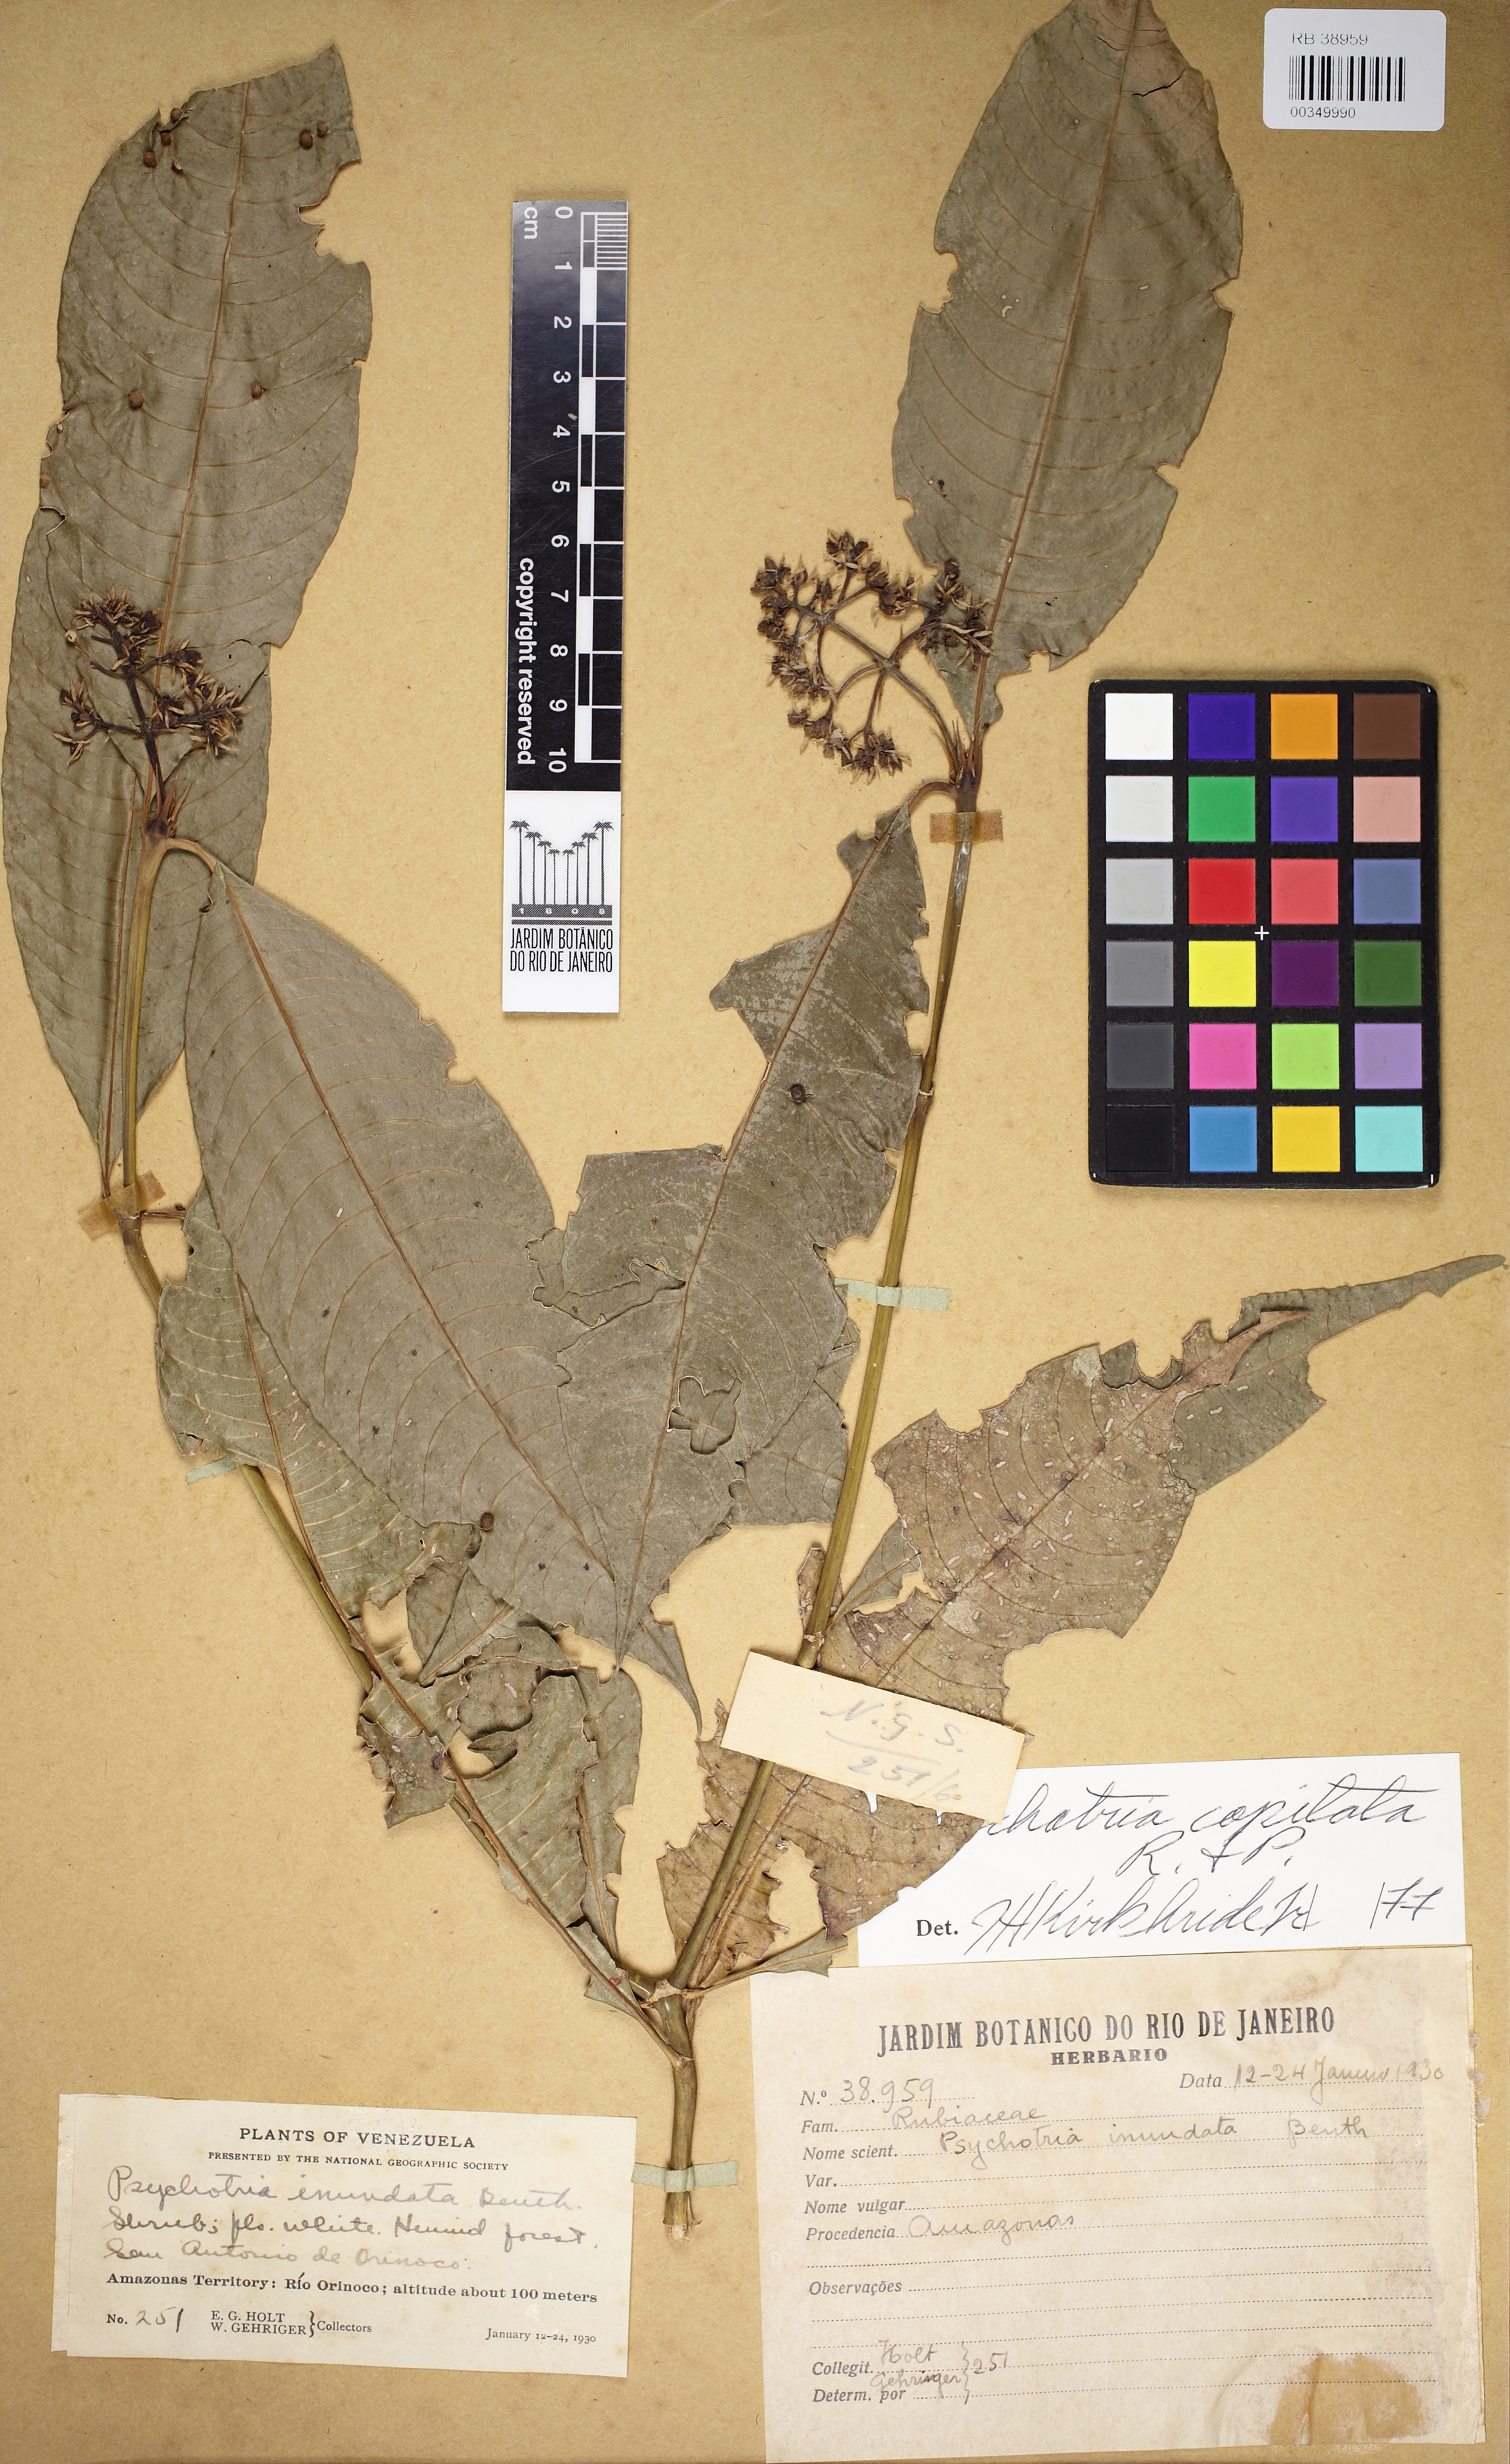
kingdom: Plantae
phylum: Tracheophyta
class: Magnoliopsida
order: Gentianales
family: Rubiaceae
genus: Palicourea
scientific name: Palicourea violacea
